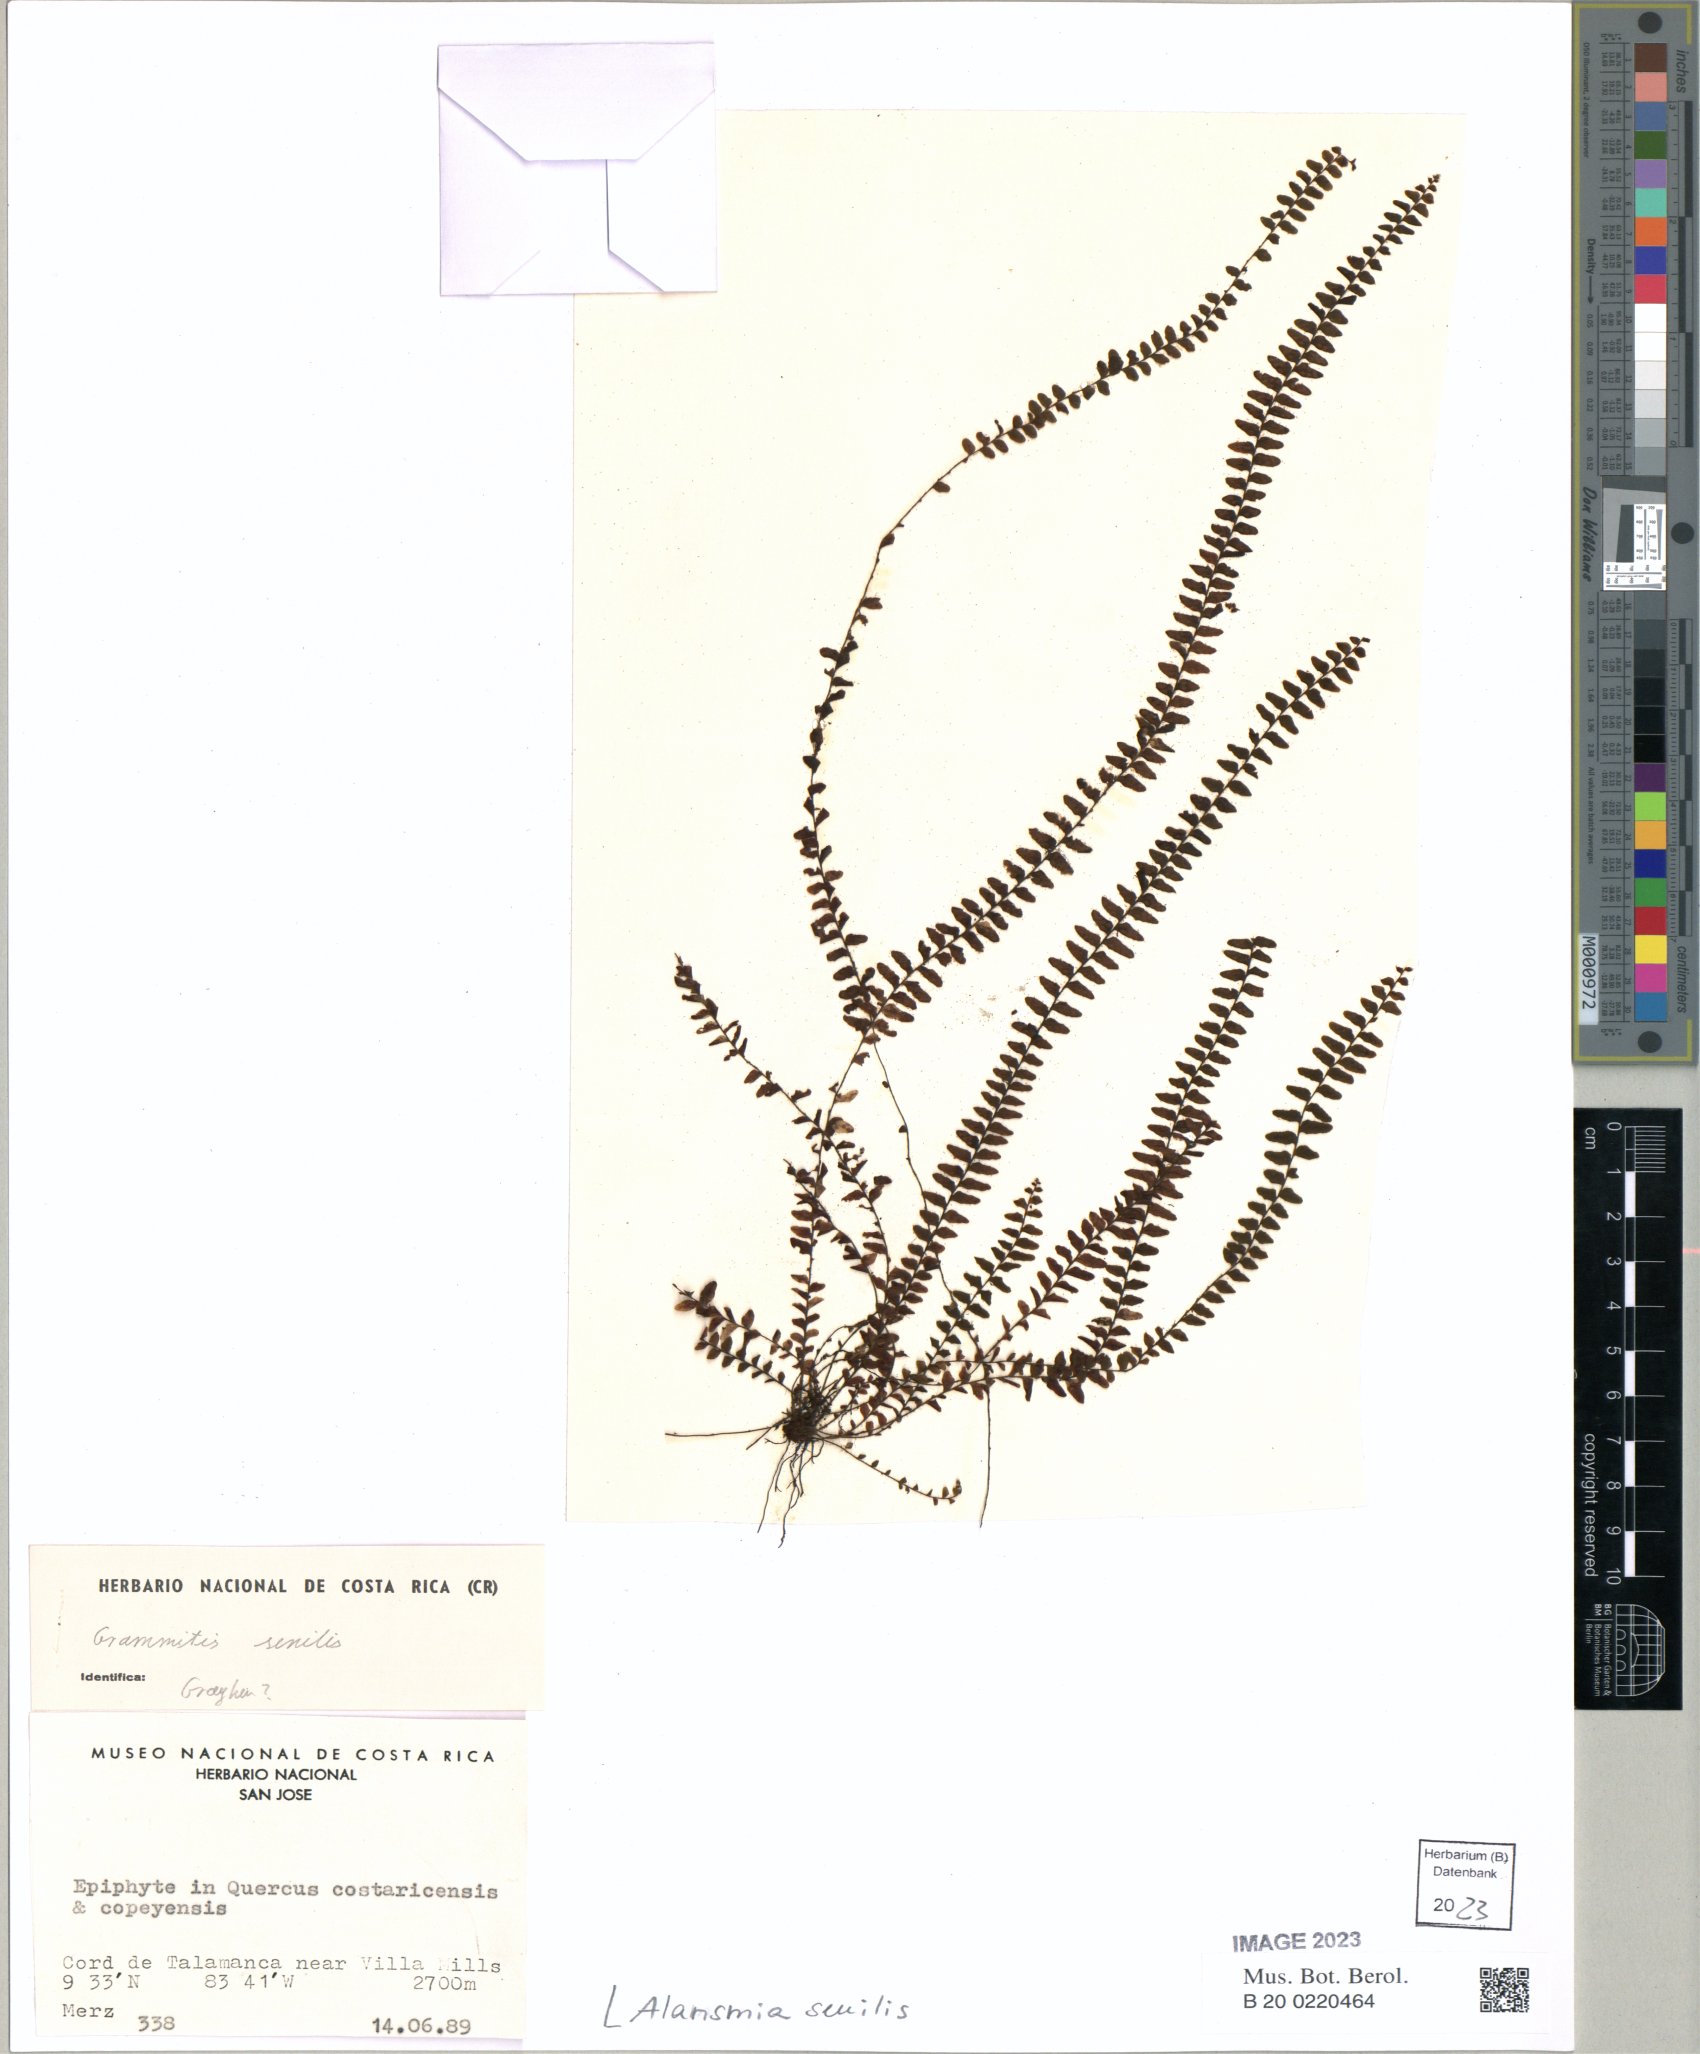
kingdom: Plantae
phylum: Tracheophyta
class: Polypodiopsida
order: Polypodiales
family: Polypodiaceae
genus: Alansmia
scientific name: Alansmia senilis
